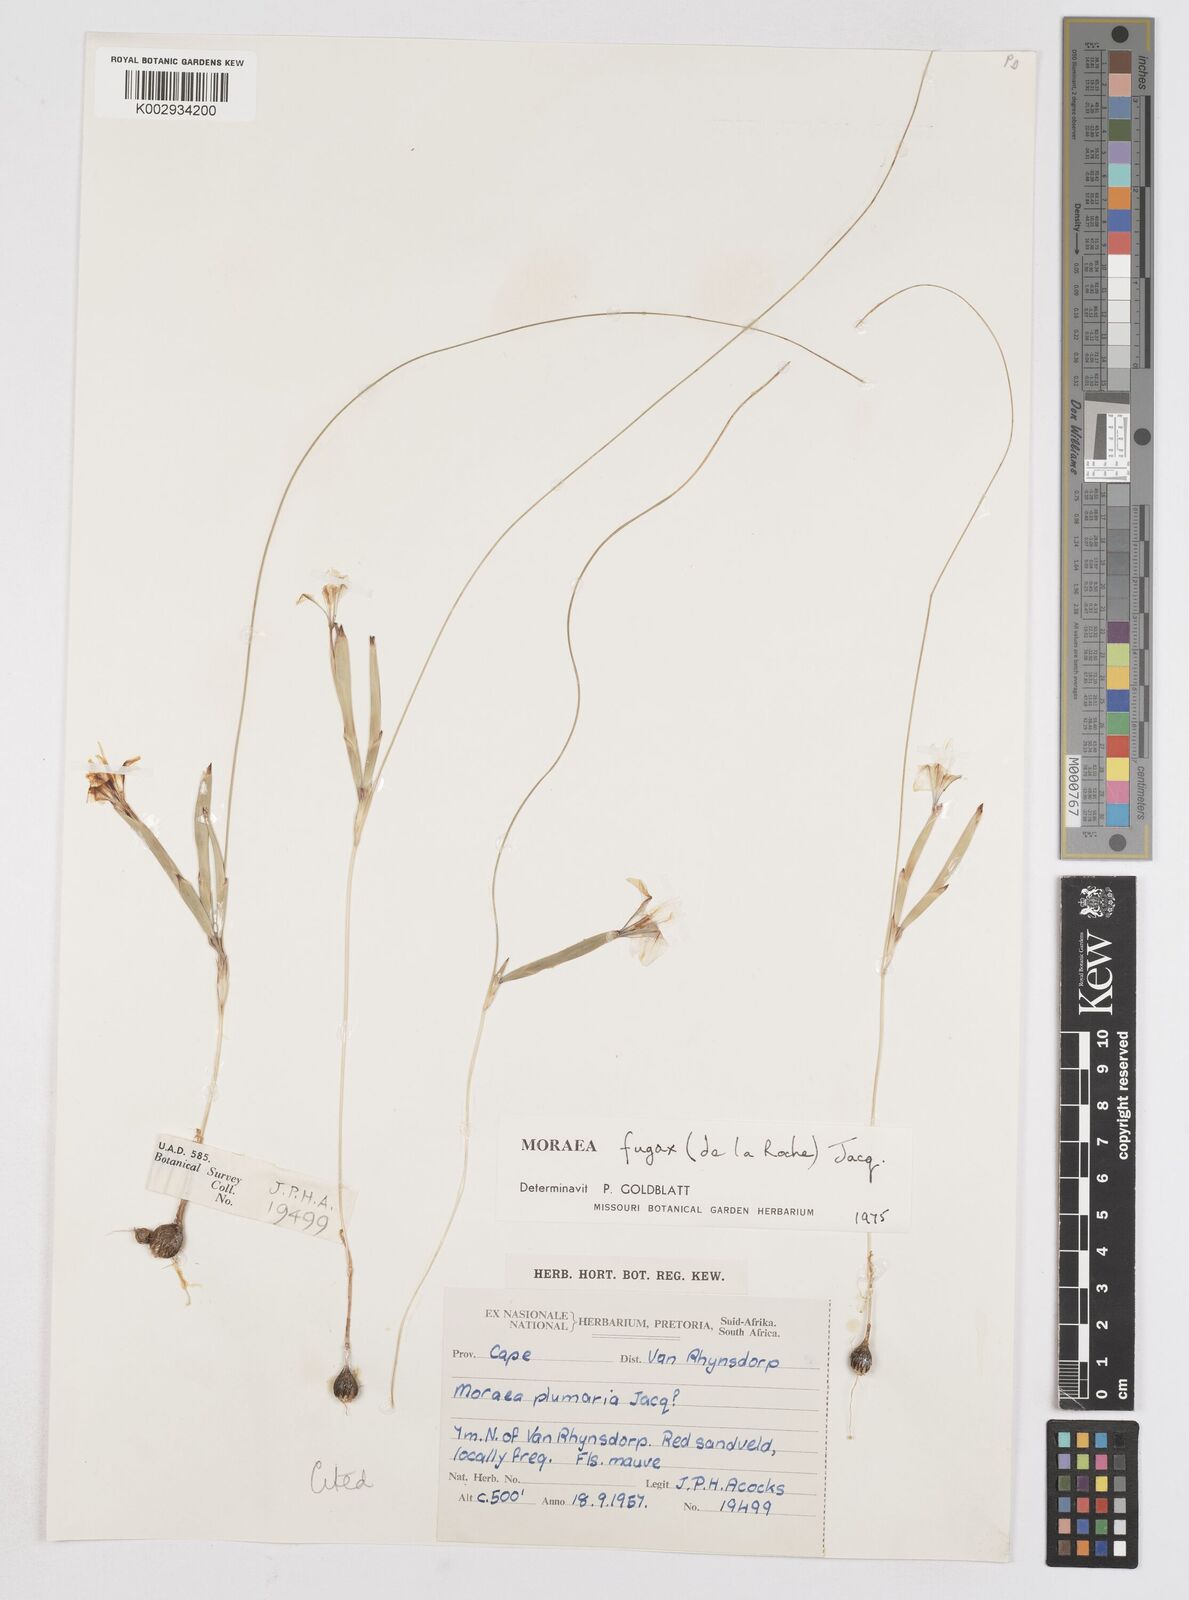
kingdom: Plantae
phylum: Tracheophyta
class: Liliopsida
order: Asparagales
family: Iridaceae
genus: Moraea
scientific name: Moraea fugax
